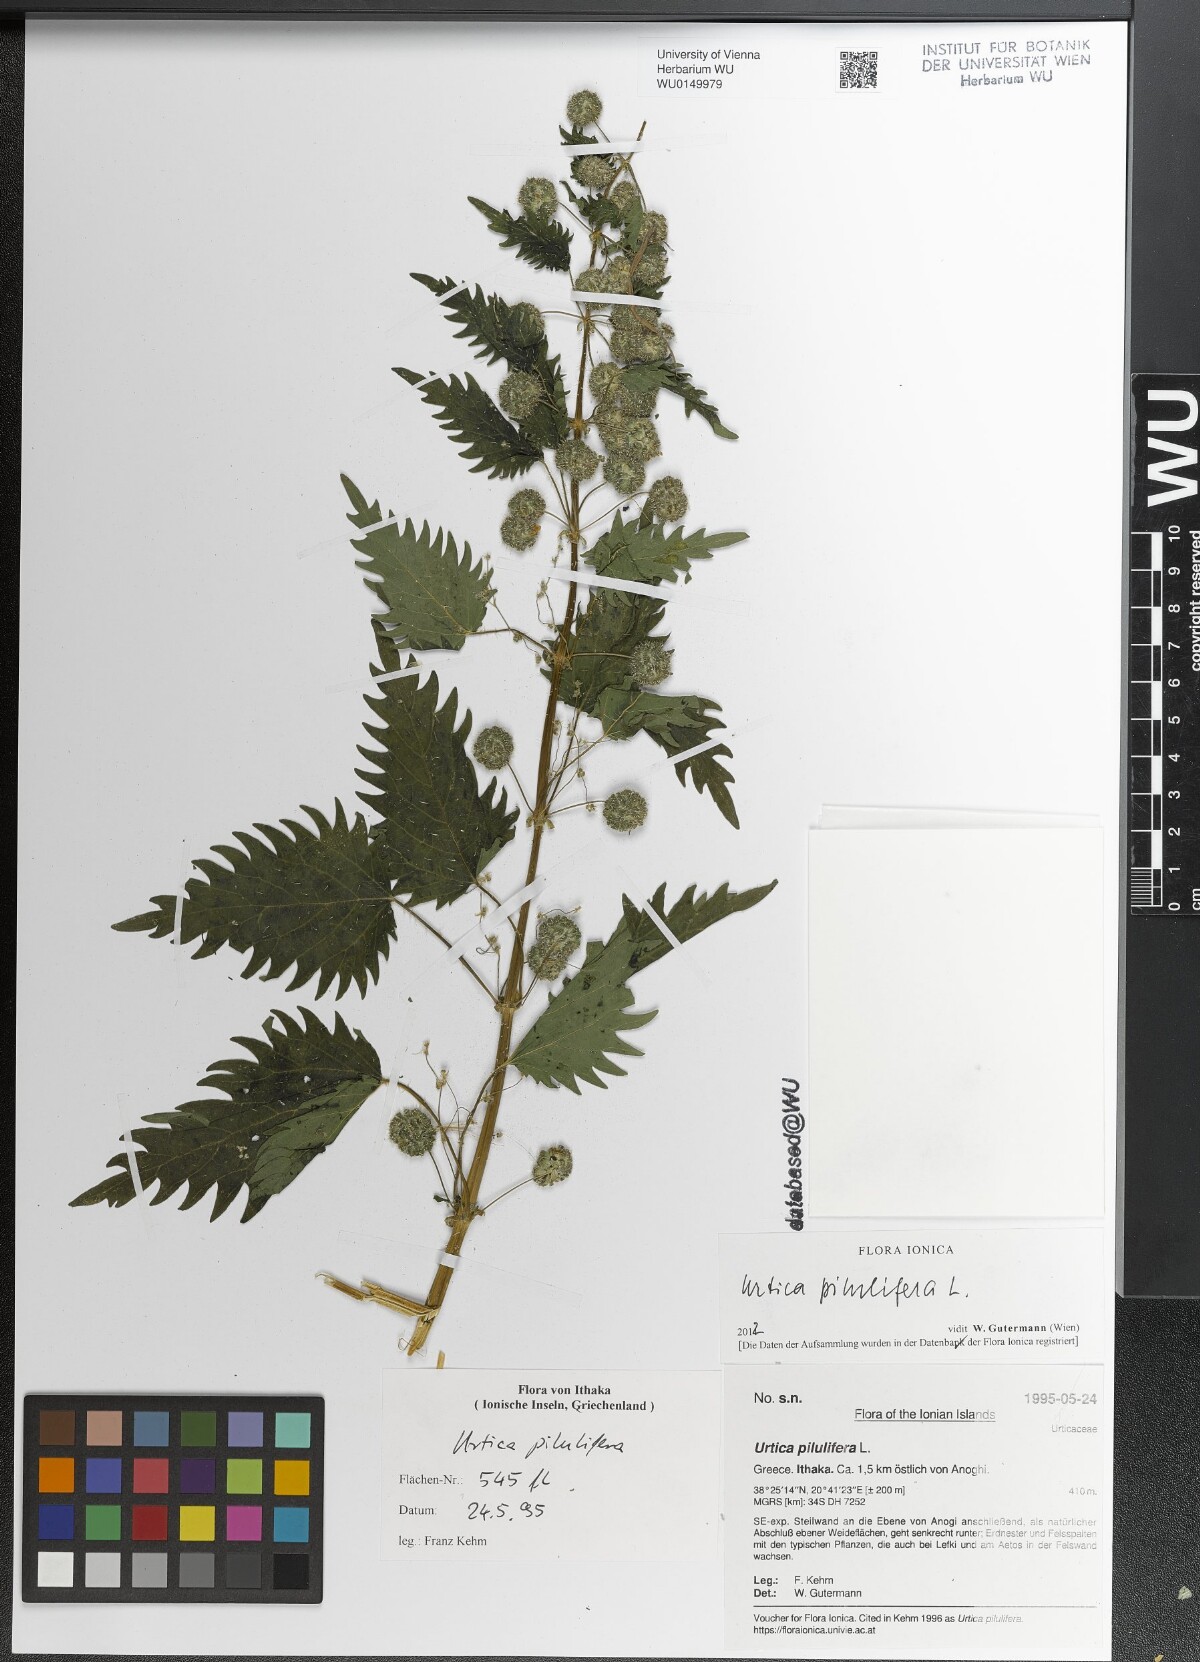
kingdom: Plantae
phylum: Tracheophyta
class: Magnoliopsida
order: Rosales
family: Urticaceae
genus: Urtica
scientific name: Urtica pilulifera
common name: Roman nettle
